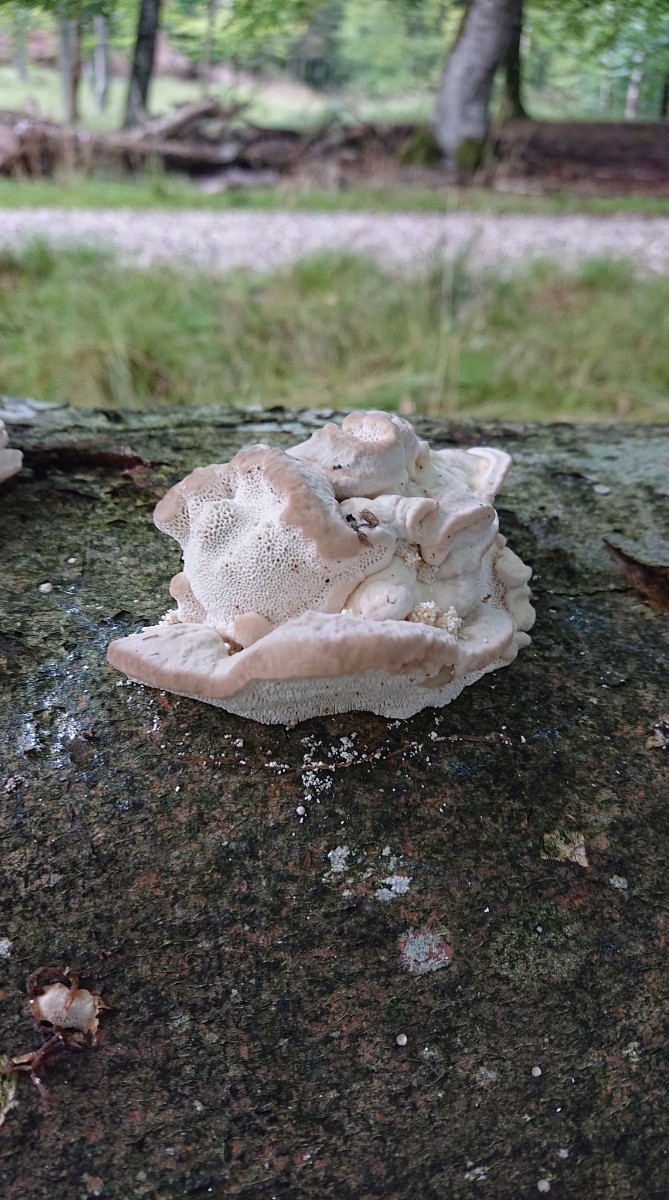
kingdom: Fungi
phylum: Basidiomycota
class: Agaricomycetes
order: Polyporales
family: Polyporaceae
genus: Trametes
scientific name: Trametes gibbosa
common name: puklet læderporesvamp
